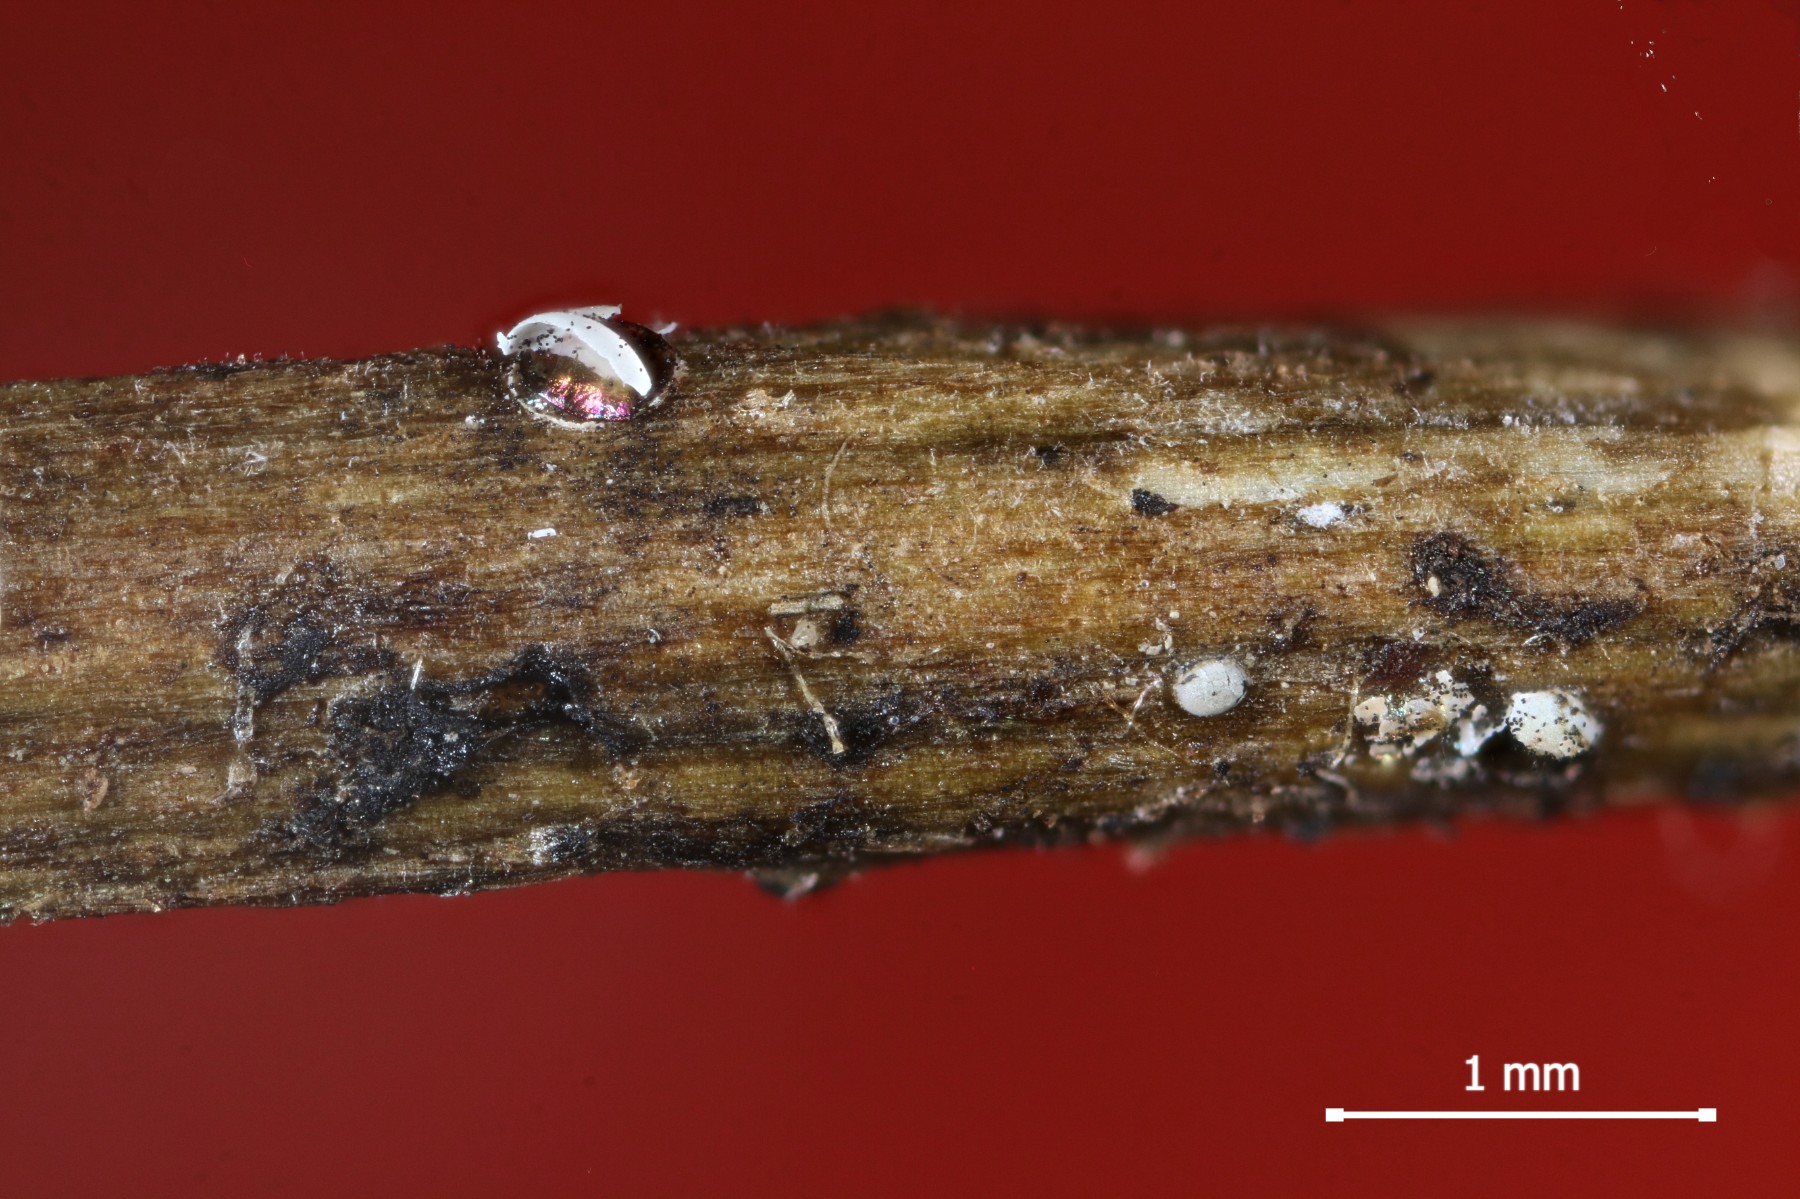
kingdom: Protozoa
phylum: Mycetozoa
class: Myxomycetes
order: Physarales
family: Didymiaceae
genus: Didymium
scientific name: Didymium difforme
